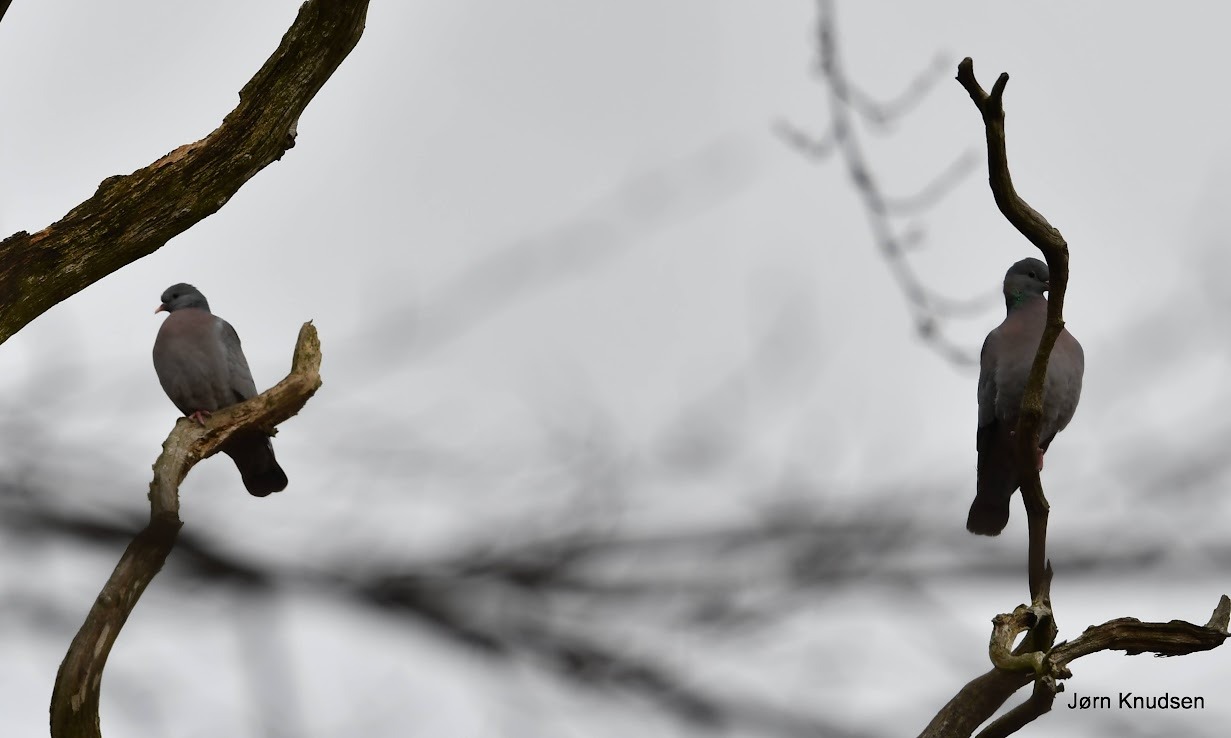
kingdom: Animalia
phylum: Chordata
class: Aves
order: Columbiformes
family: Columbidae
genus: Columba
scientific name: Columba oenas
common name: Huldue
